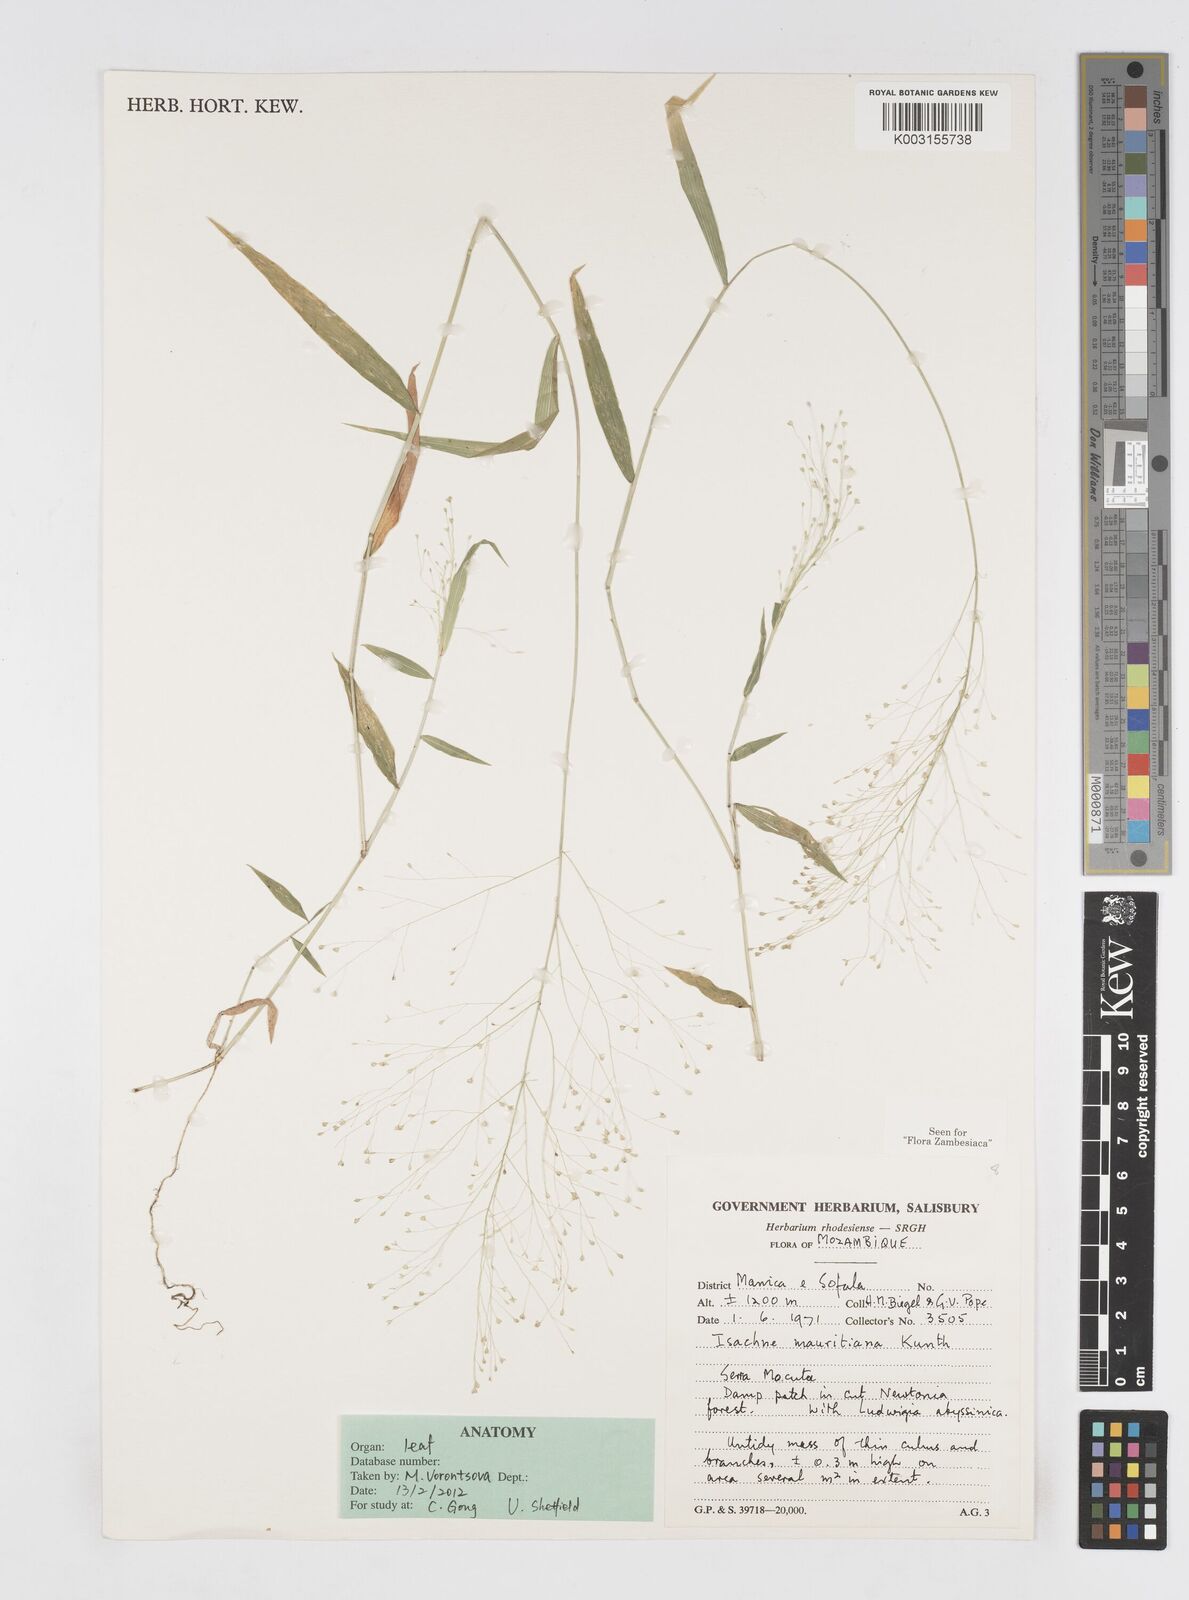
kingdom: Plantae
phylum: Tracheophyta
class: Liliopsida
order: Poales
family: Poaceae
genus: Isachne
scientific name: Isachne mauritiana
